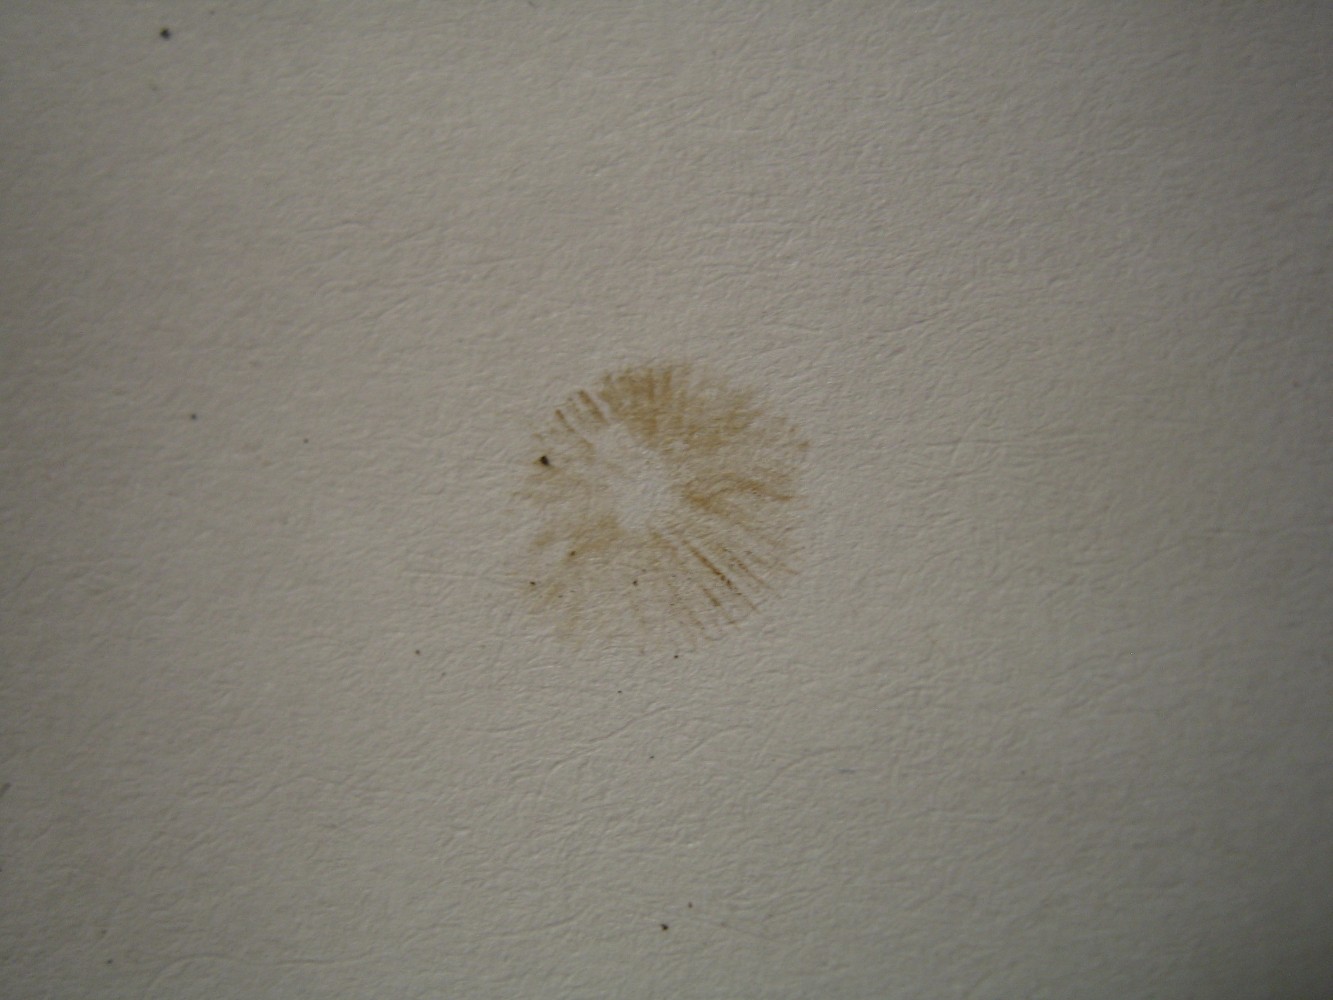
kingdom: Fungi
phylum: Basidiomycota
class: Agaricomycetes
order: Agaricales
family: Hymenogastraceae
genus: Galerina
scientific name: Galerina
